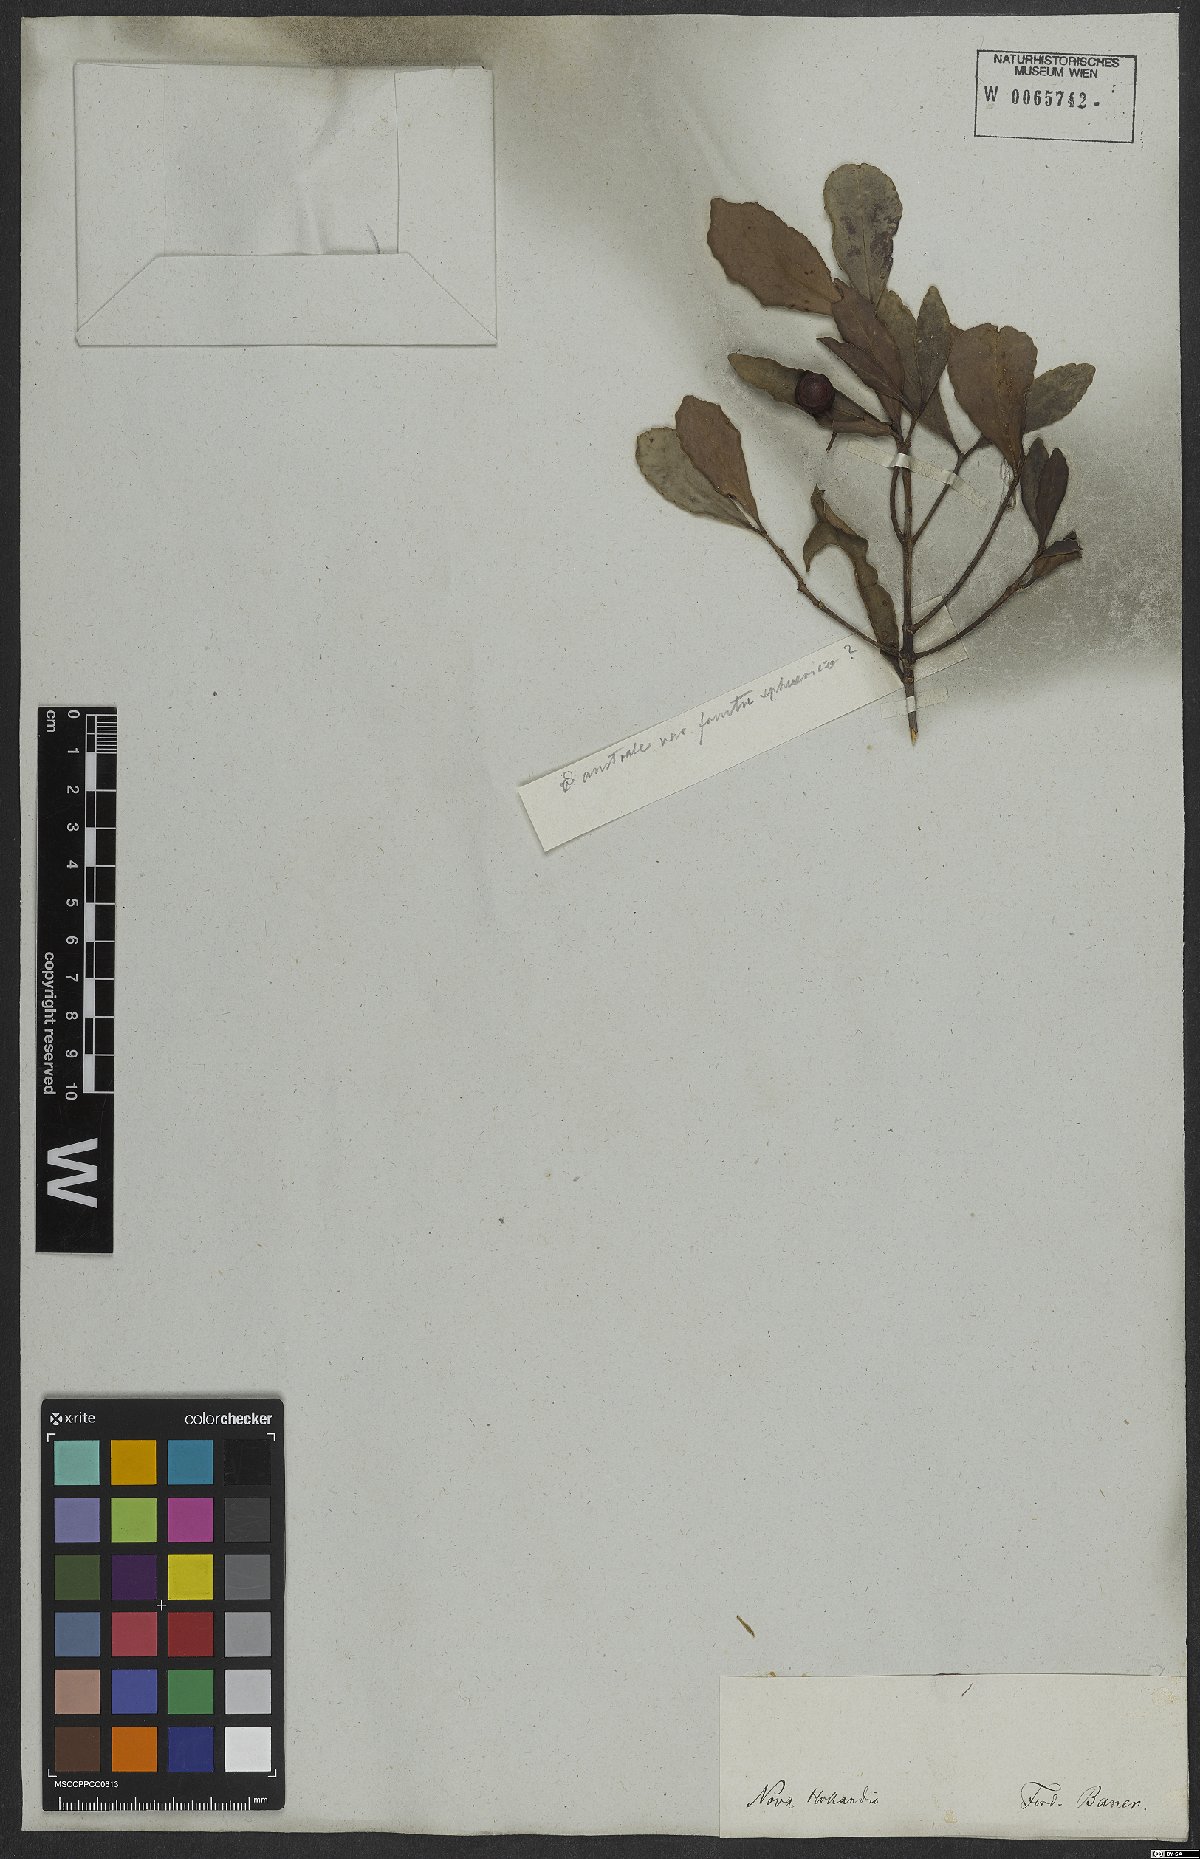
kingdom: Plantae
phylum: Tracheophyta
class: Magnoliopsida
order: Celastrales
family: Celastraceae
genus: Elaeodendron
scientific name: Elaeodendron
